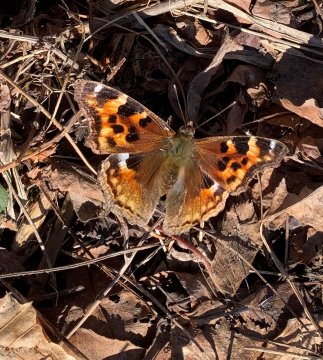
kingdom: Animalia
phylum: Arthropoda
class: Insecta
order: Lepidoptera
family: Nymphalidae
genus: Polygonia
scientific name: Polygonia vaualbum
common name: Compton Tortoiseshell
